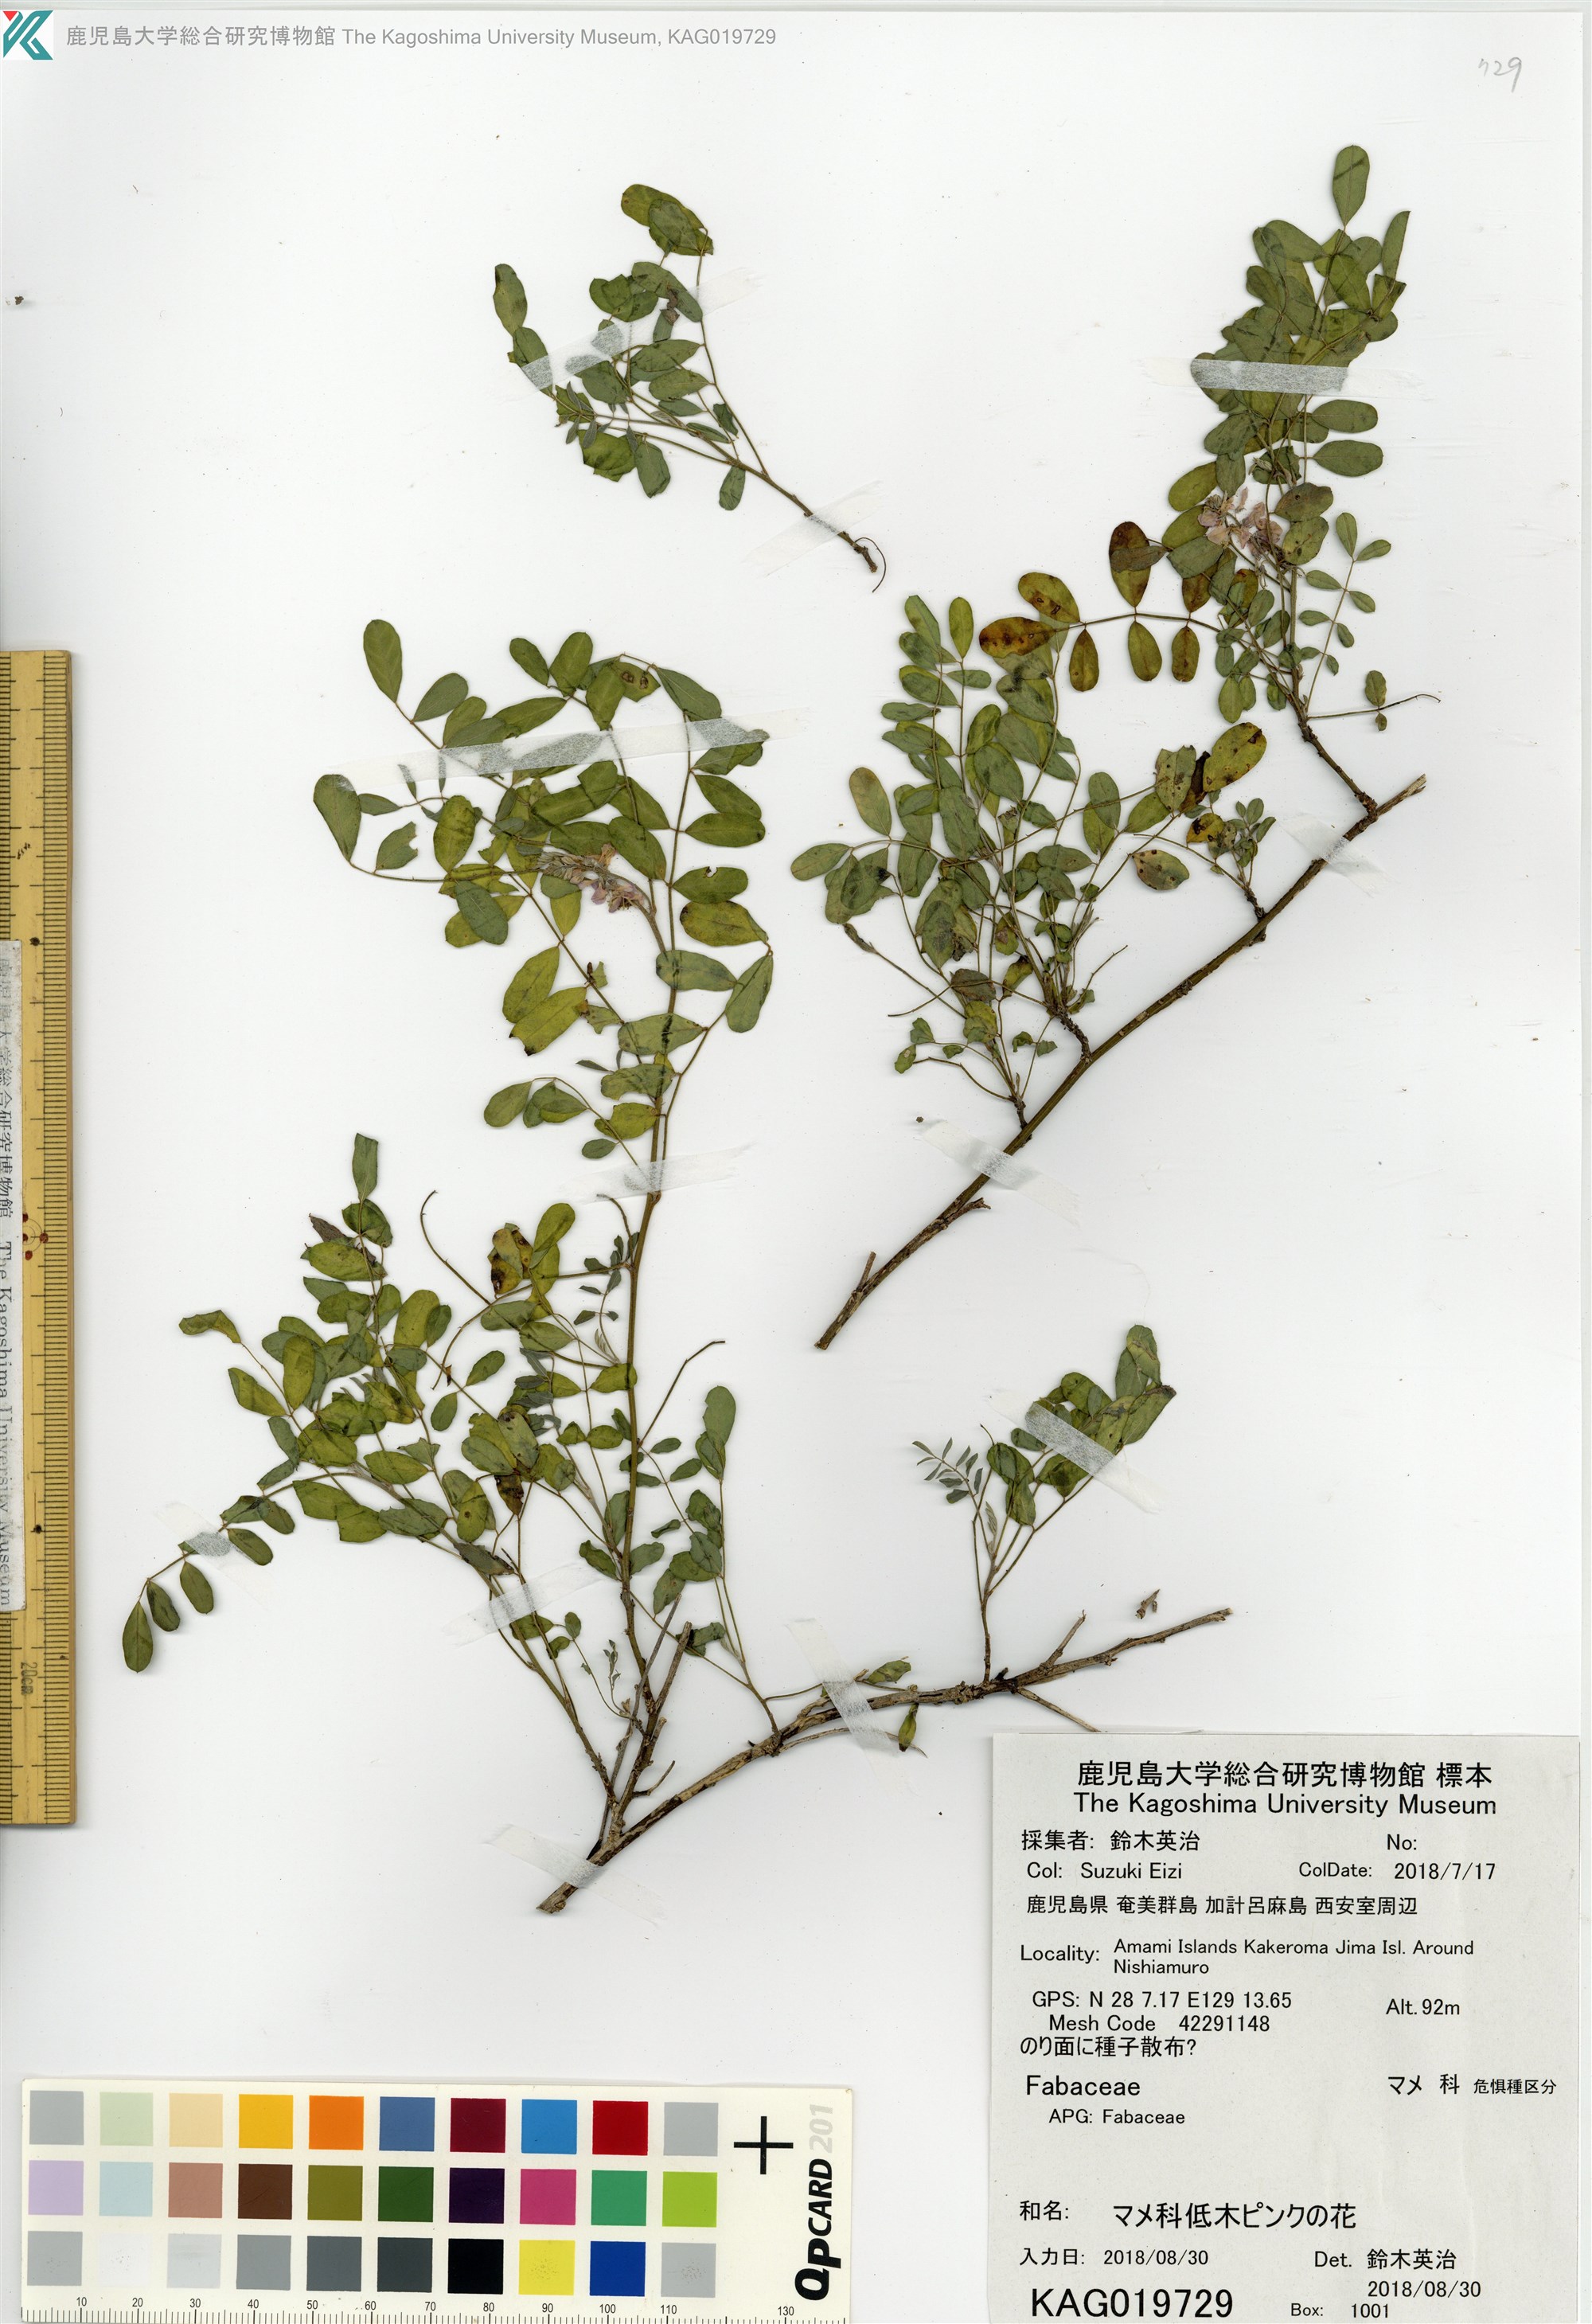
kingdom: Plantae
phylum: Tracheophyta
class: Magnoliopsida
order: Fabales
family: Fabaceae
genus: Indigofera
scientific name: Indigofera bungeana
